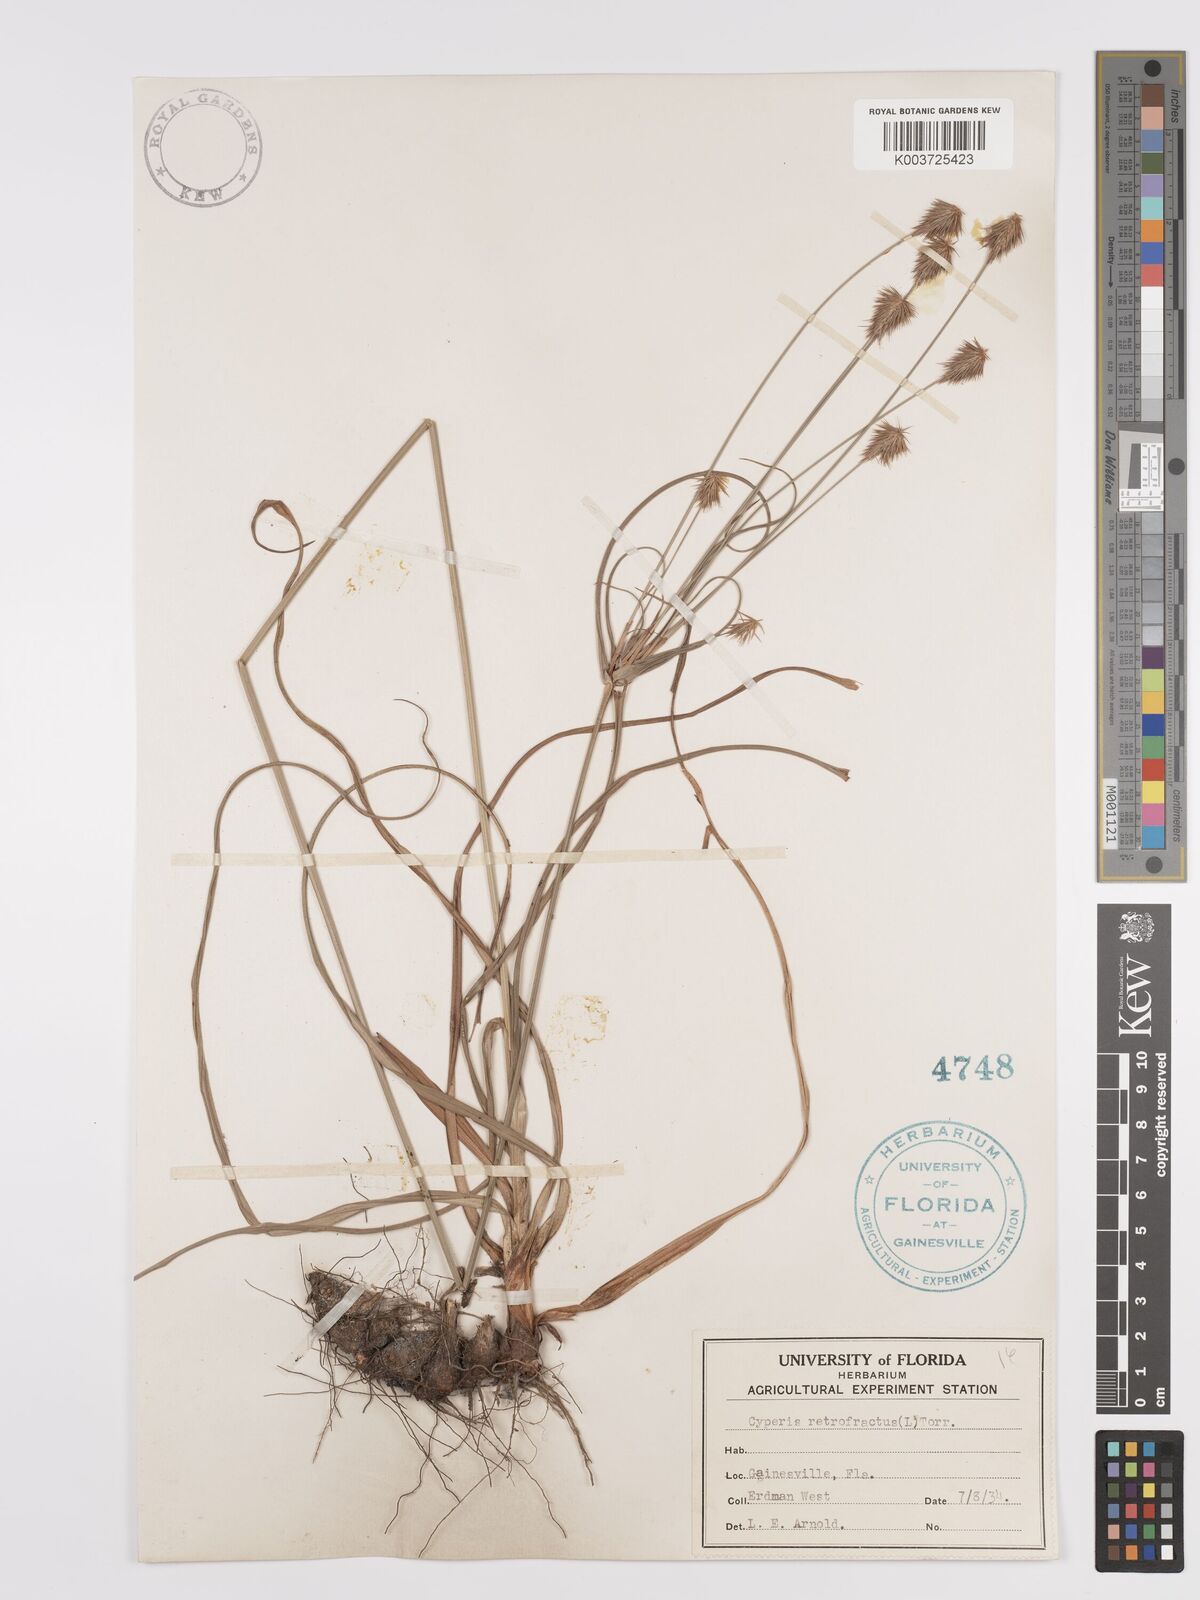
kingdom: Plantae
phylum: Tracheophyta
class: Liliopsida
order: Poales
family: Cyperaceae
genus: Cyperus
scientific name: Cyperus retrofractus
